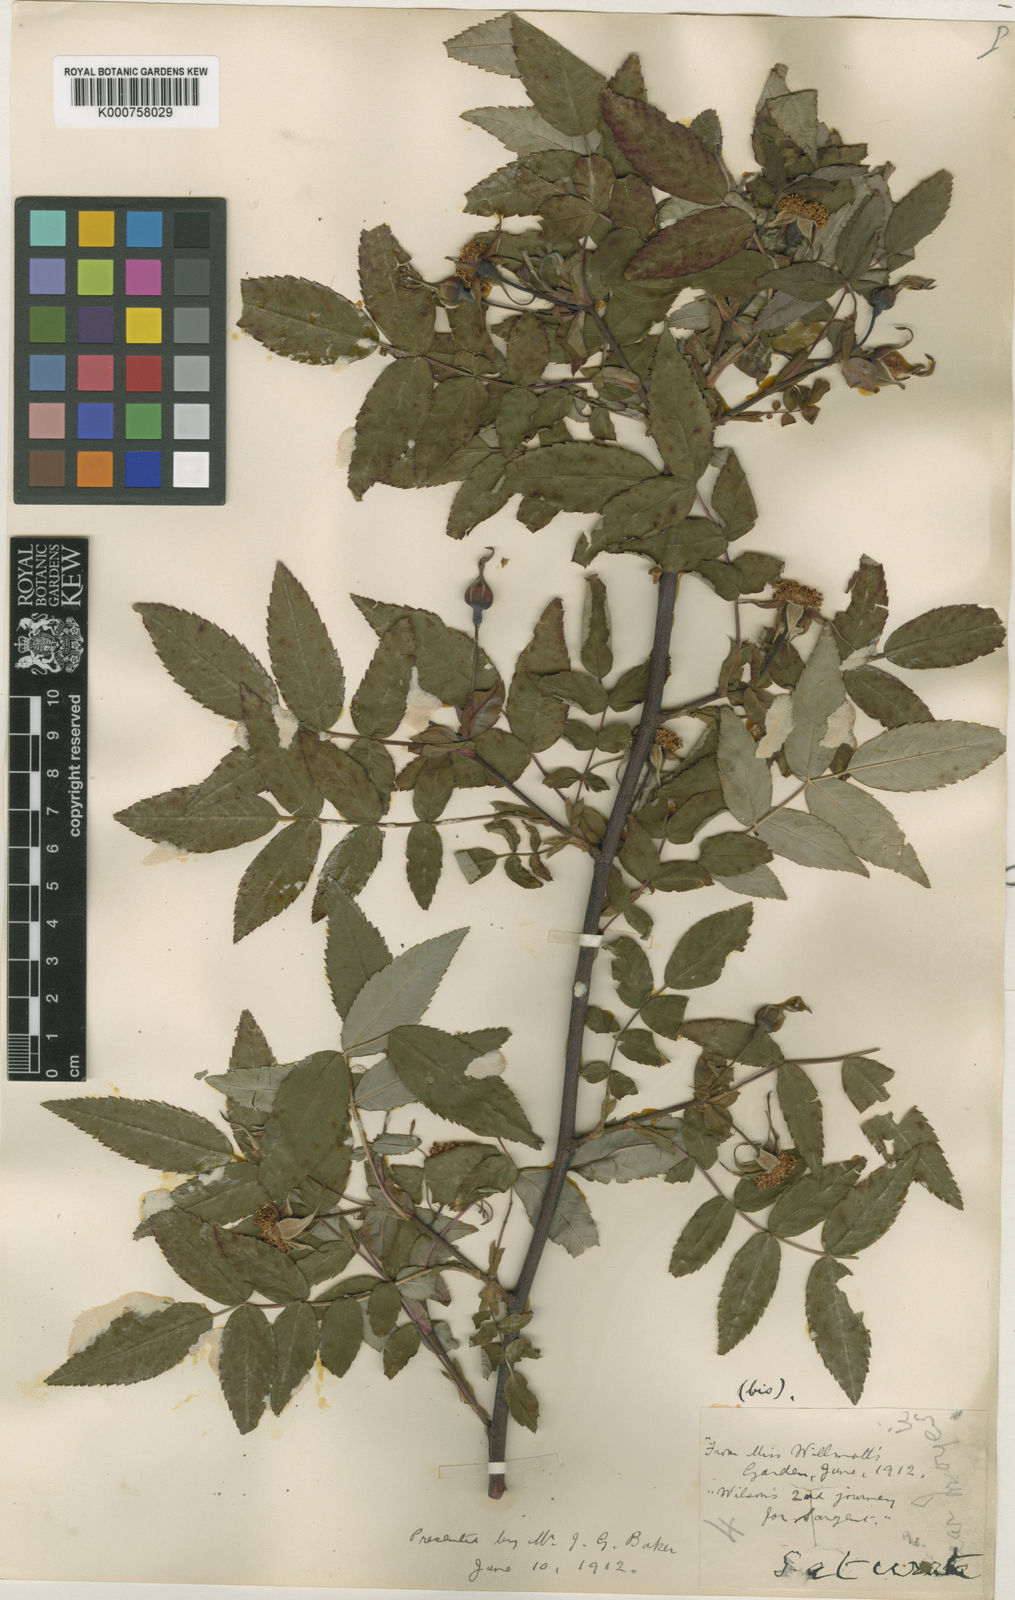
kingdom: Plantae
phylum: Tracheophyta
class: Magnoliopsida
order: Rosales
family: Rosaceae
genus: Rosa
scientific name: Rosa saturata
